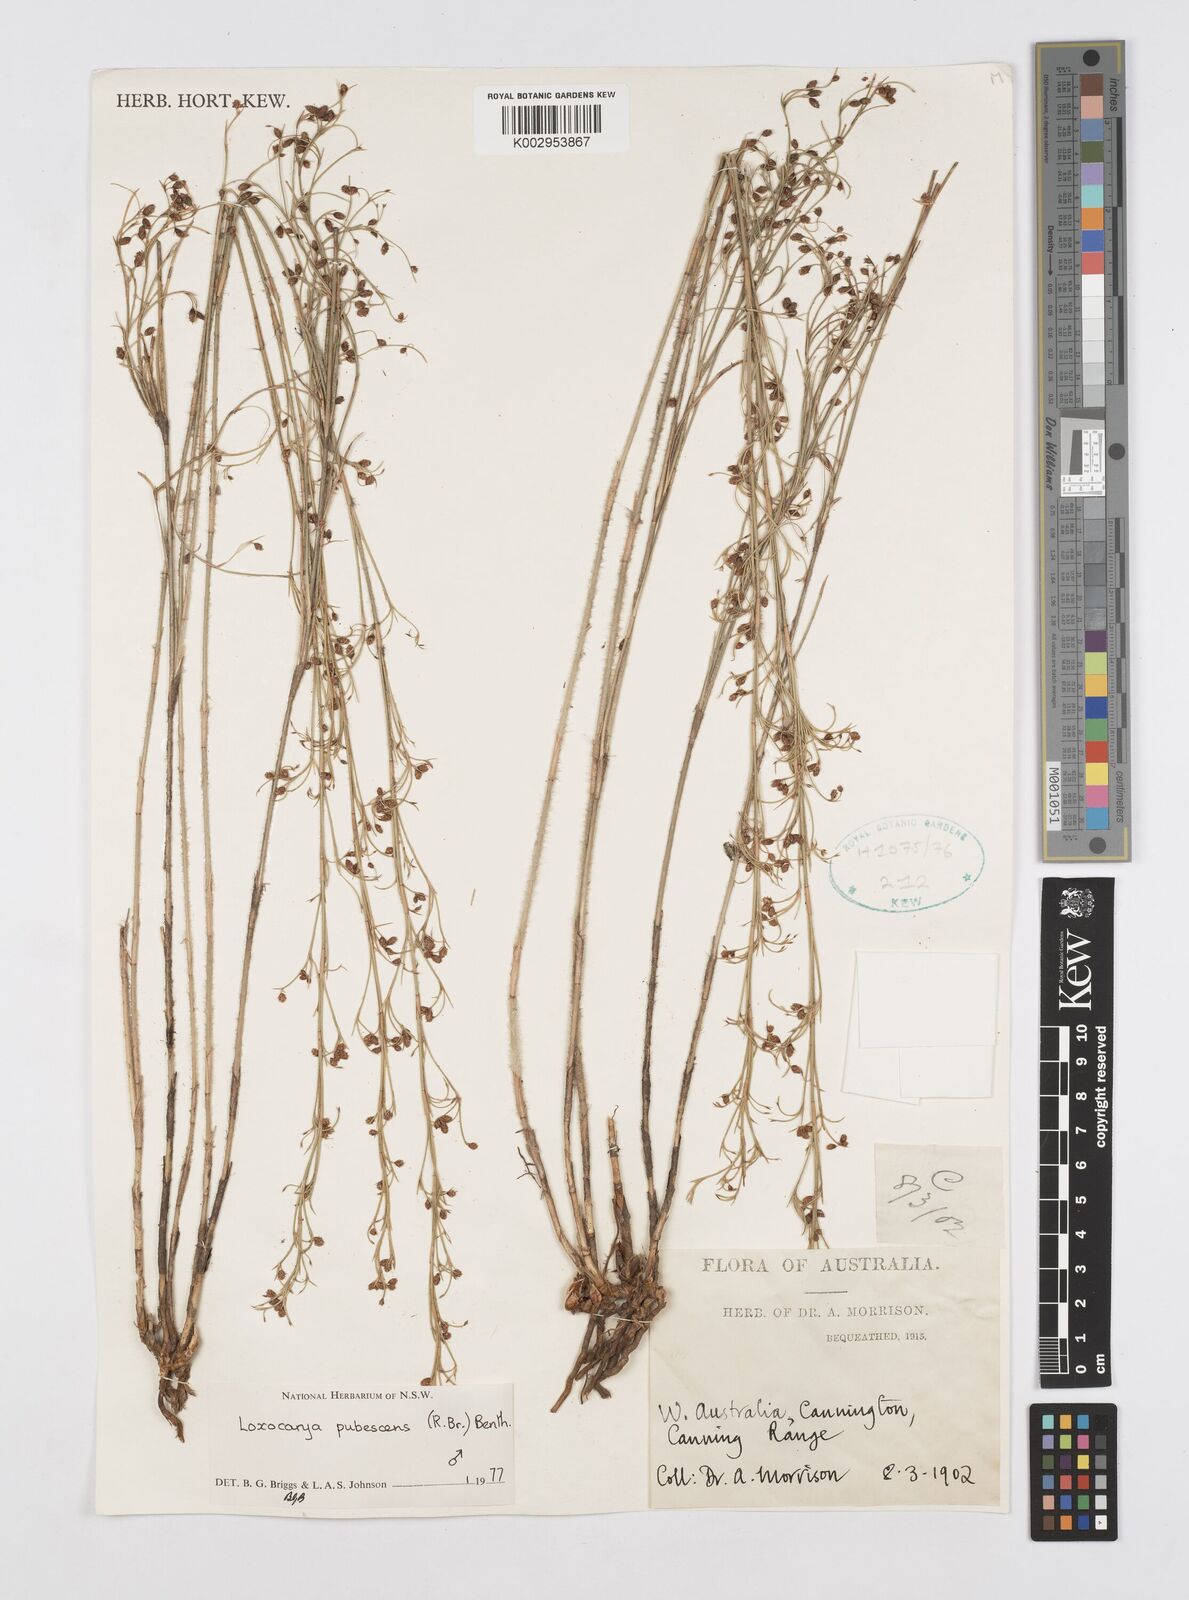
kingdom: Plantae
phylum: Tracheophyta
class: Liliopsida
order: Poales
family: Restionaceae
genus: Hypolaena
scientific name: Hypolaena pubescens
